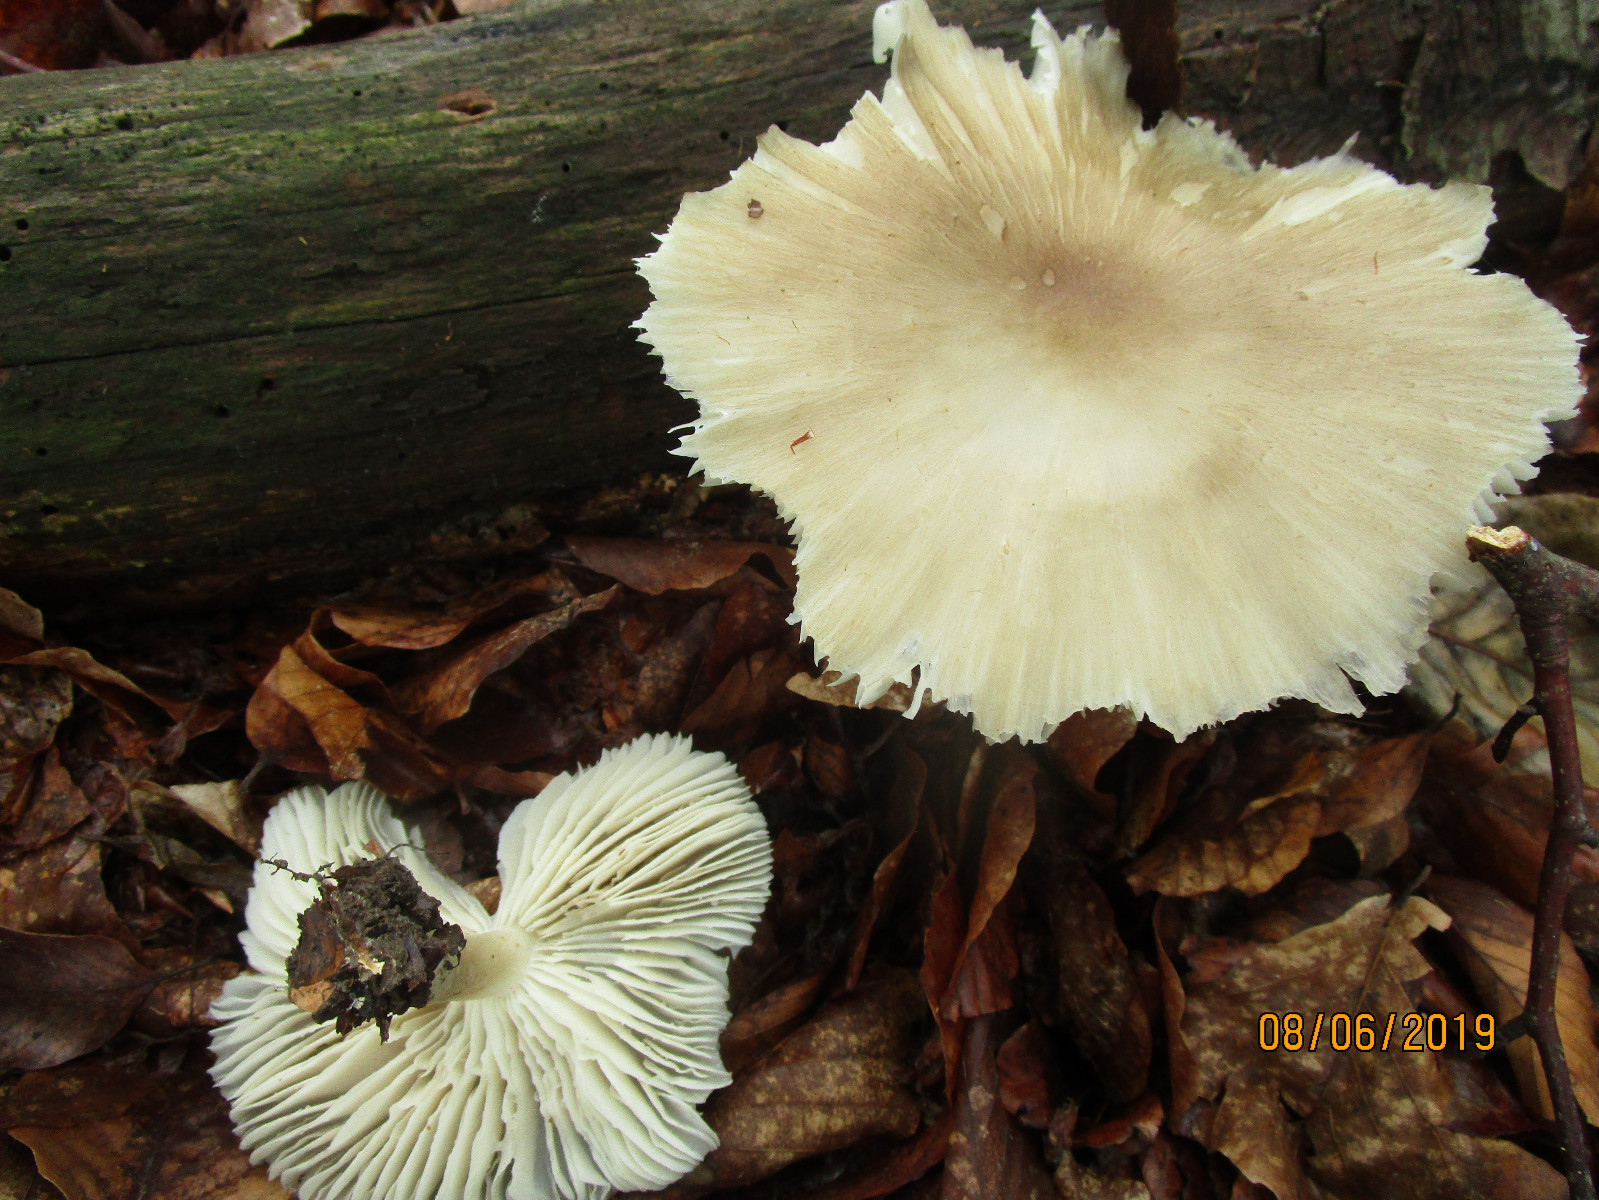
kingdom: Fungi
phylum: Basidiomycota
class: Agaricomycetes
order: Agaricales
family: Tricholomataceae
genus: Megacollybia
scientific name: Megacollybia platyphylla
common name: bredbladet væbnerhat
